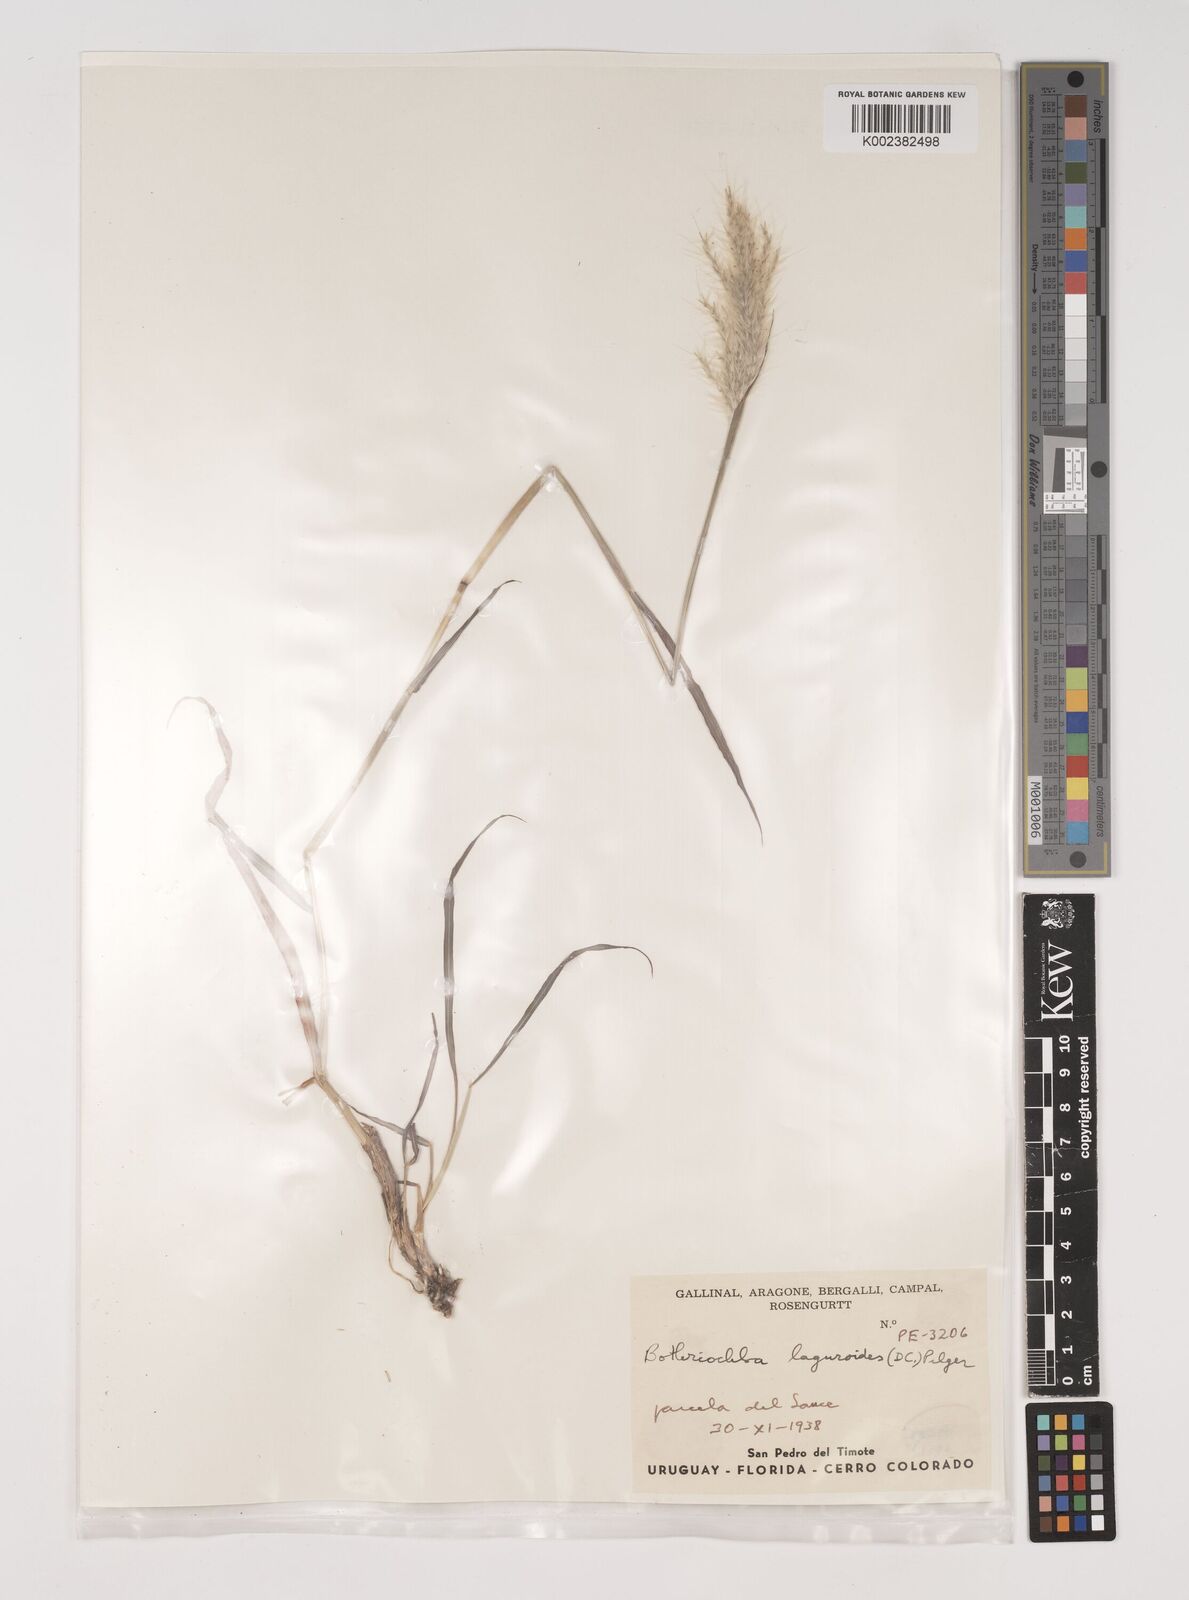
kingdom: Plantae
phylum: Tracheophyta
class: Liliopsida
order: Poales
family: Poaceae
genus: Bothriochloa
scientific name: Bothriochloa laguroides
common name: Silver bluestem
